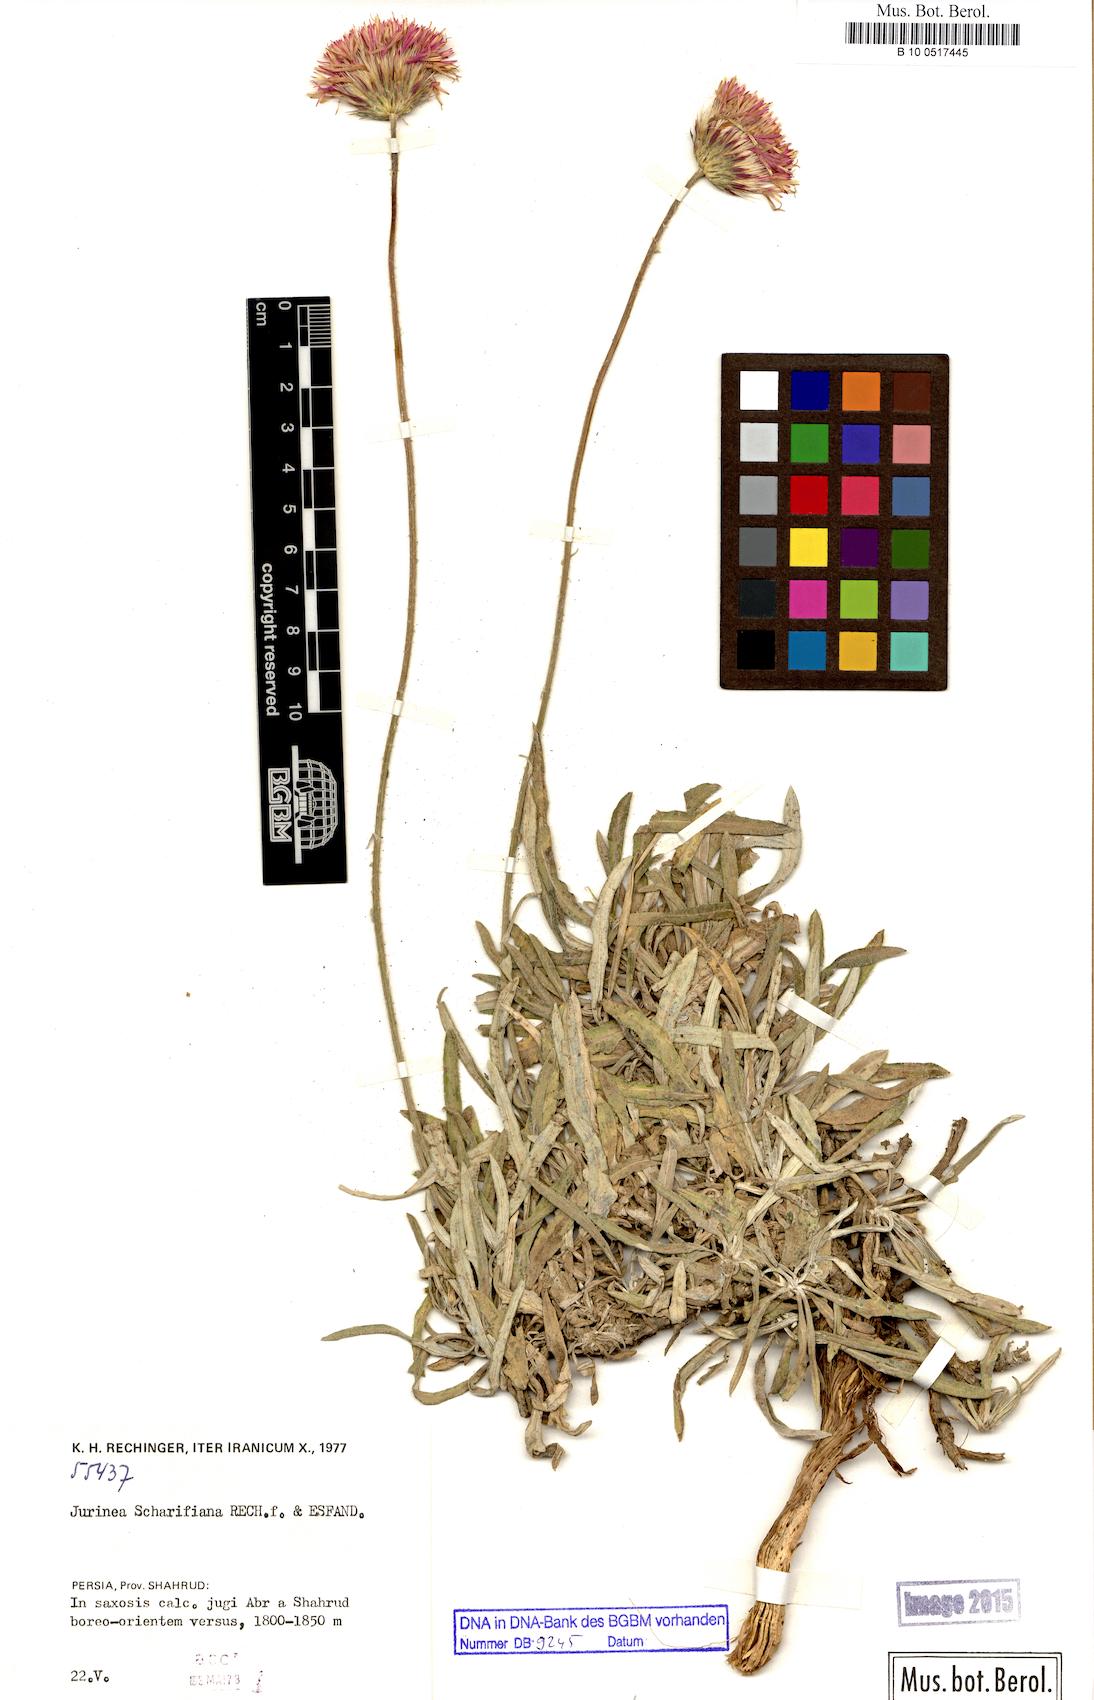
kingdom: Plantae
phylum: Tracheophyta
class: Magnoliopsida
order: Asterales
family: Asteraceae
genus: Jurinea
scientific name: Jurinea
